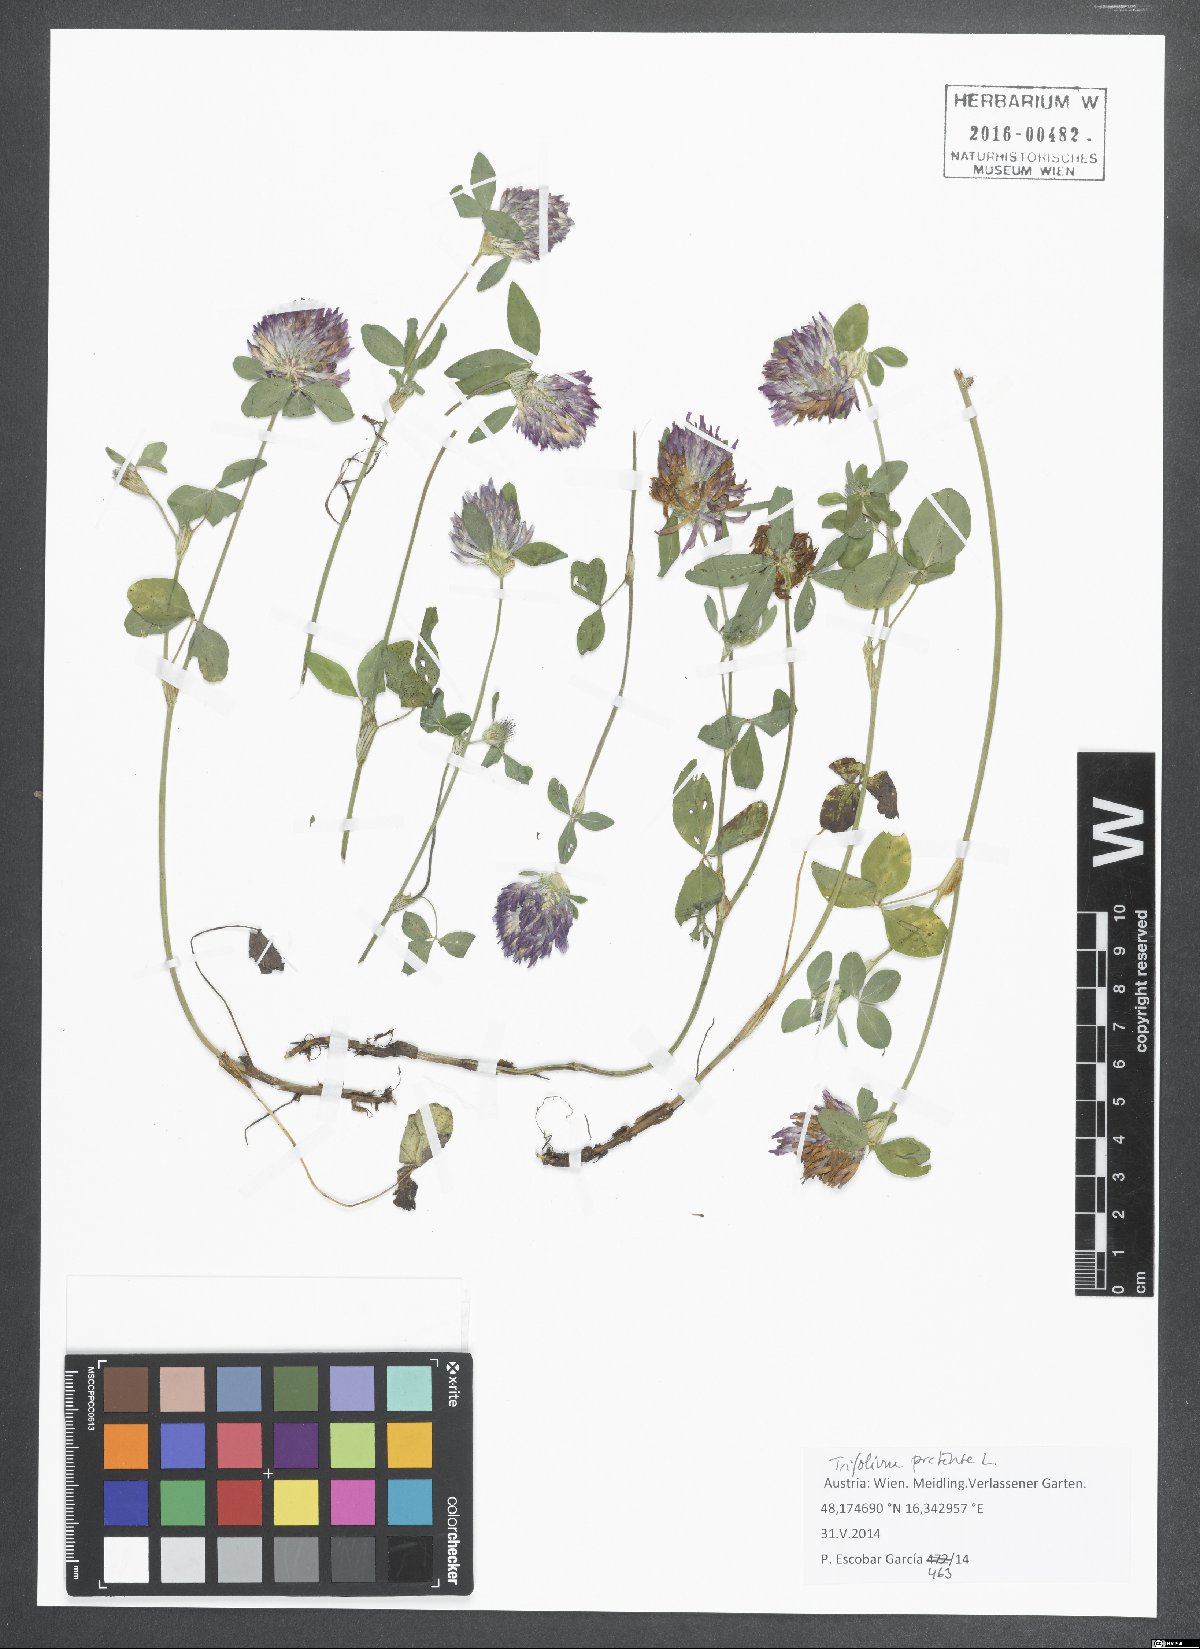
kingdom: Plantae
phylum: Tracheophyta
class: Magnoliopsida
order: Fabales
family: Fabaceae
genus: Trifolium
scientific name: Trifolium pratense
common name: Red clover
